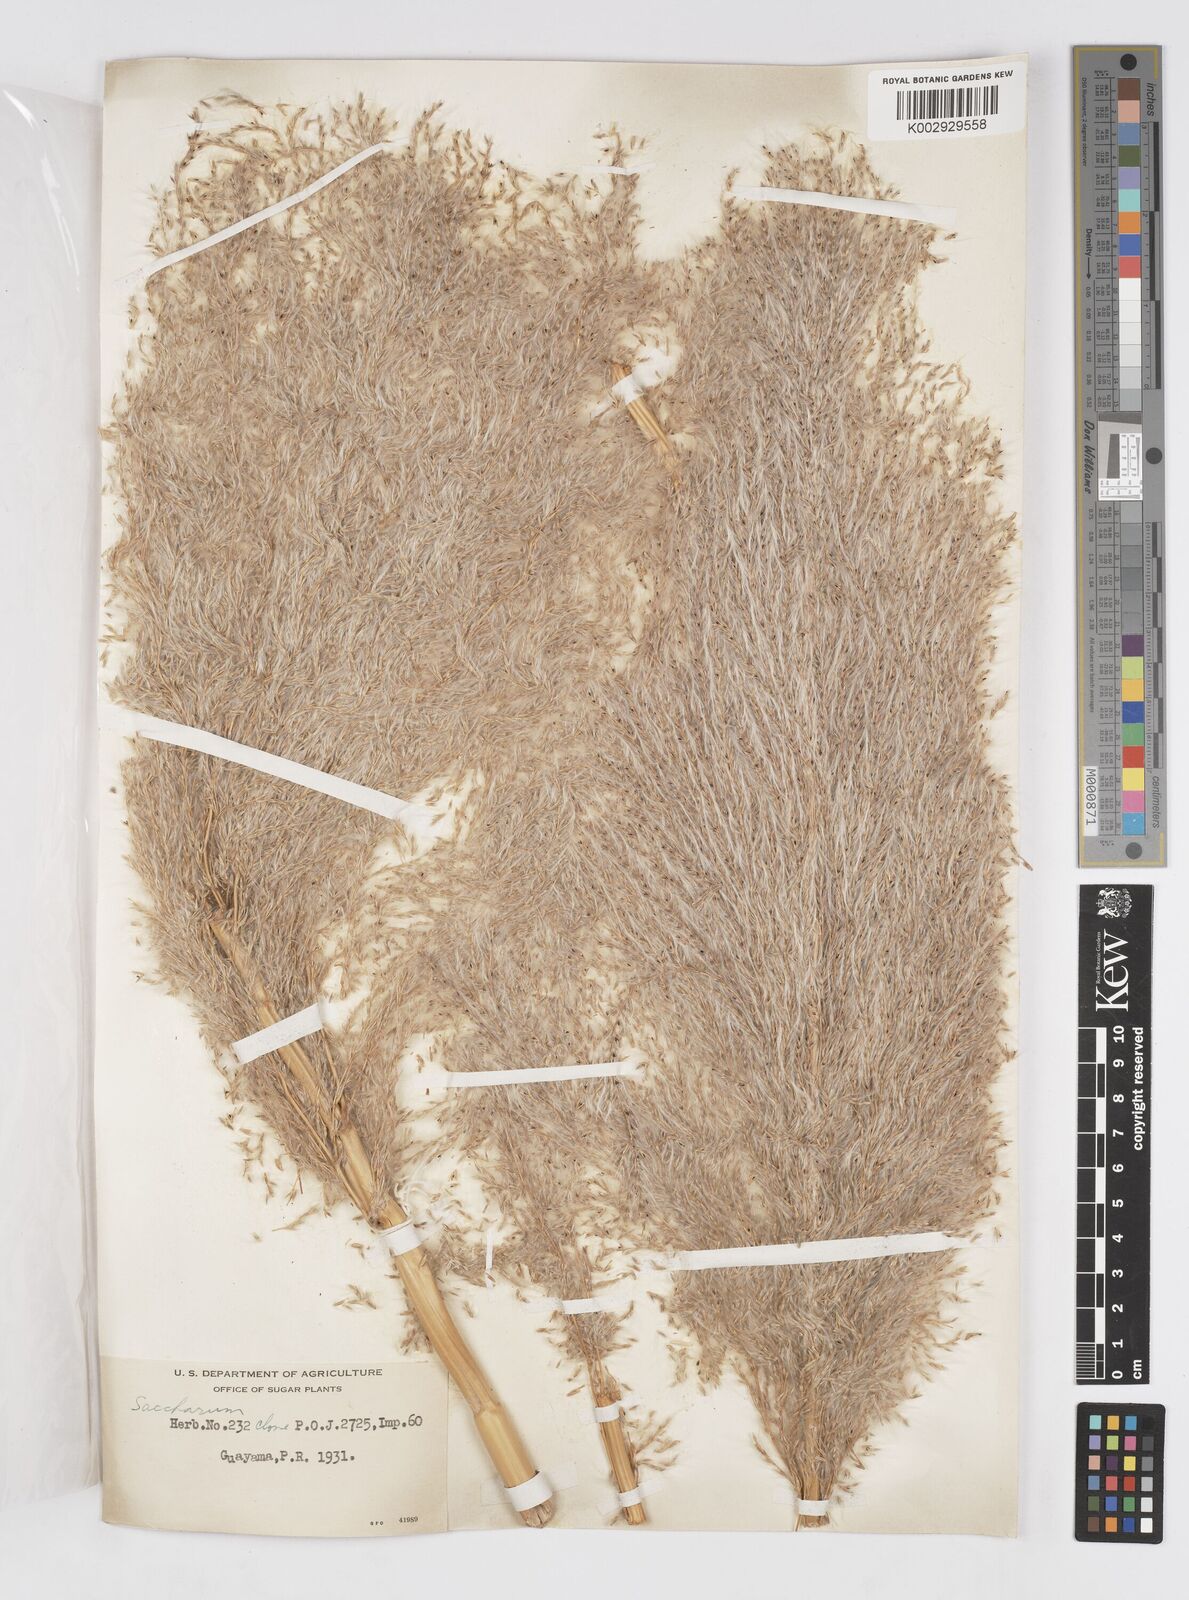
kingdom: Plantae
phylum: Tracheophyta
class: Liliopsida
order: Poales
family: Poaceae
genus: Saccharum
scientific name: Saccharum officinarum
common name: Sugarcane
